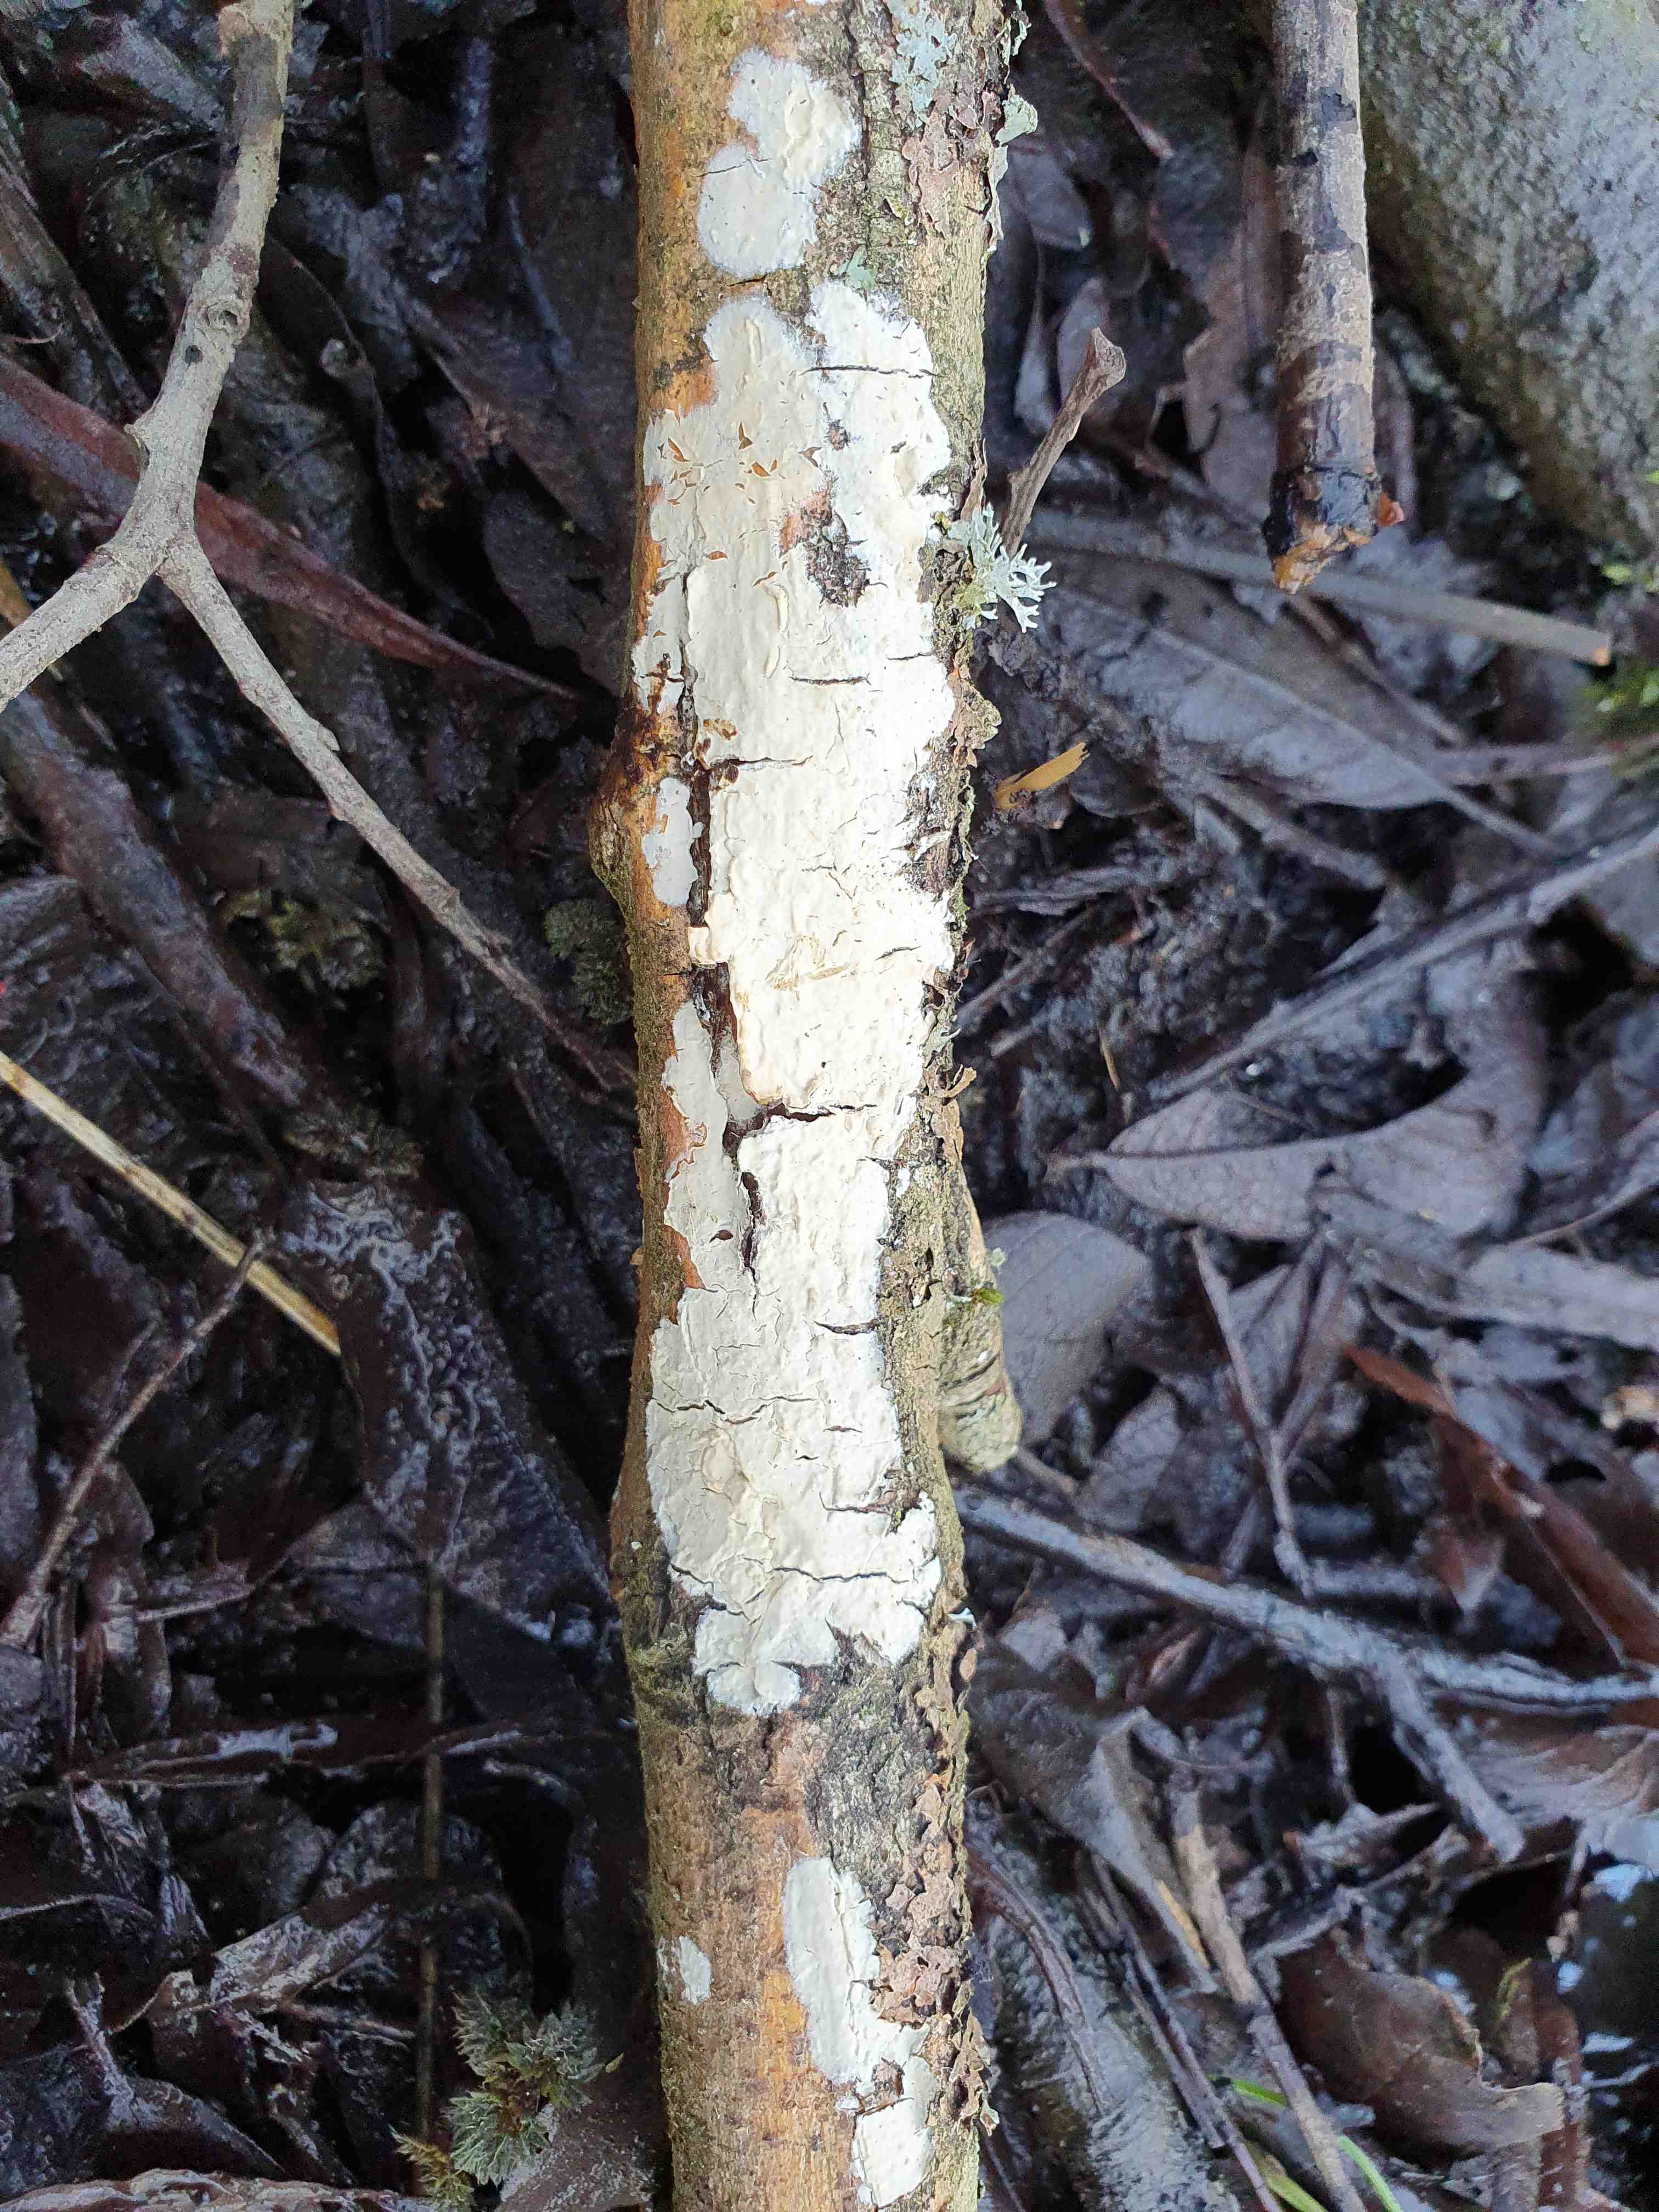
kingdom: Fungi
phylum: Basidiomycota
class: Agaricomycetes
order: Agaricales
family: Physalacriaceae
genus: Cylindrobasidium
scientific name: Cylindrobasidium evolvens
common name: sprækkehinde
